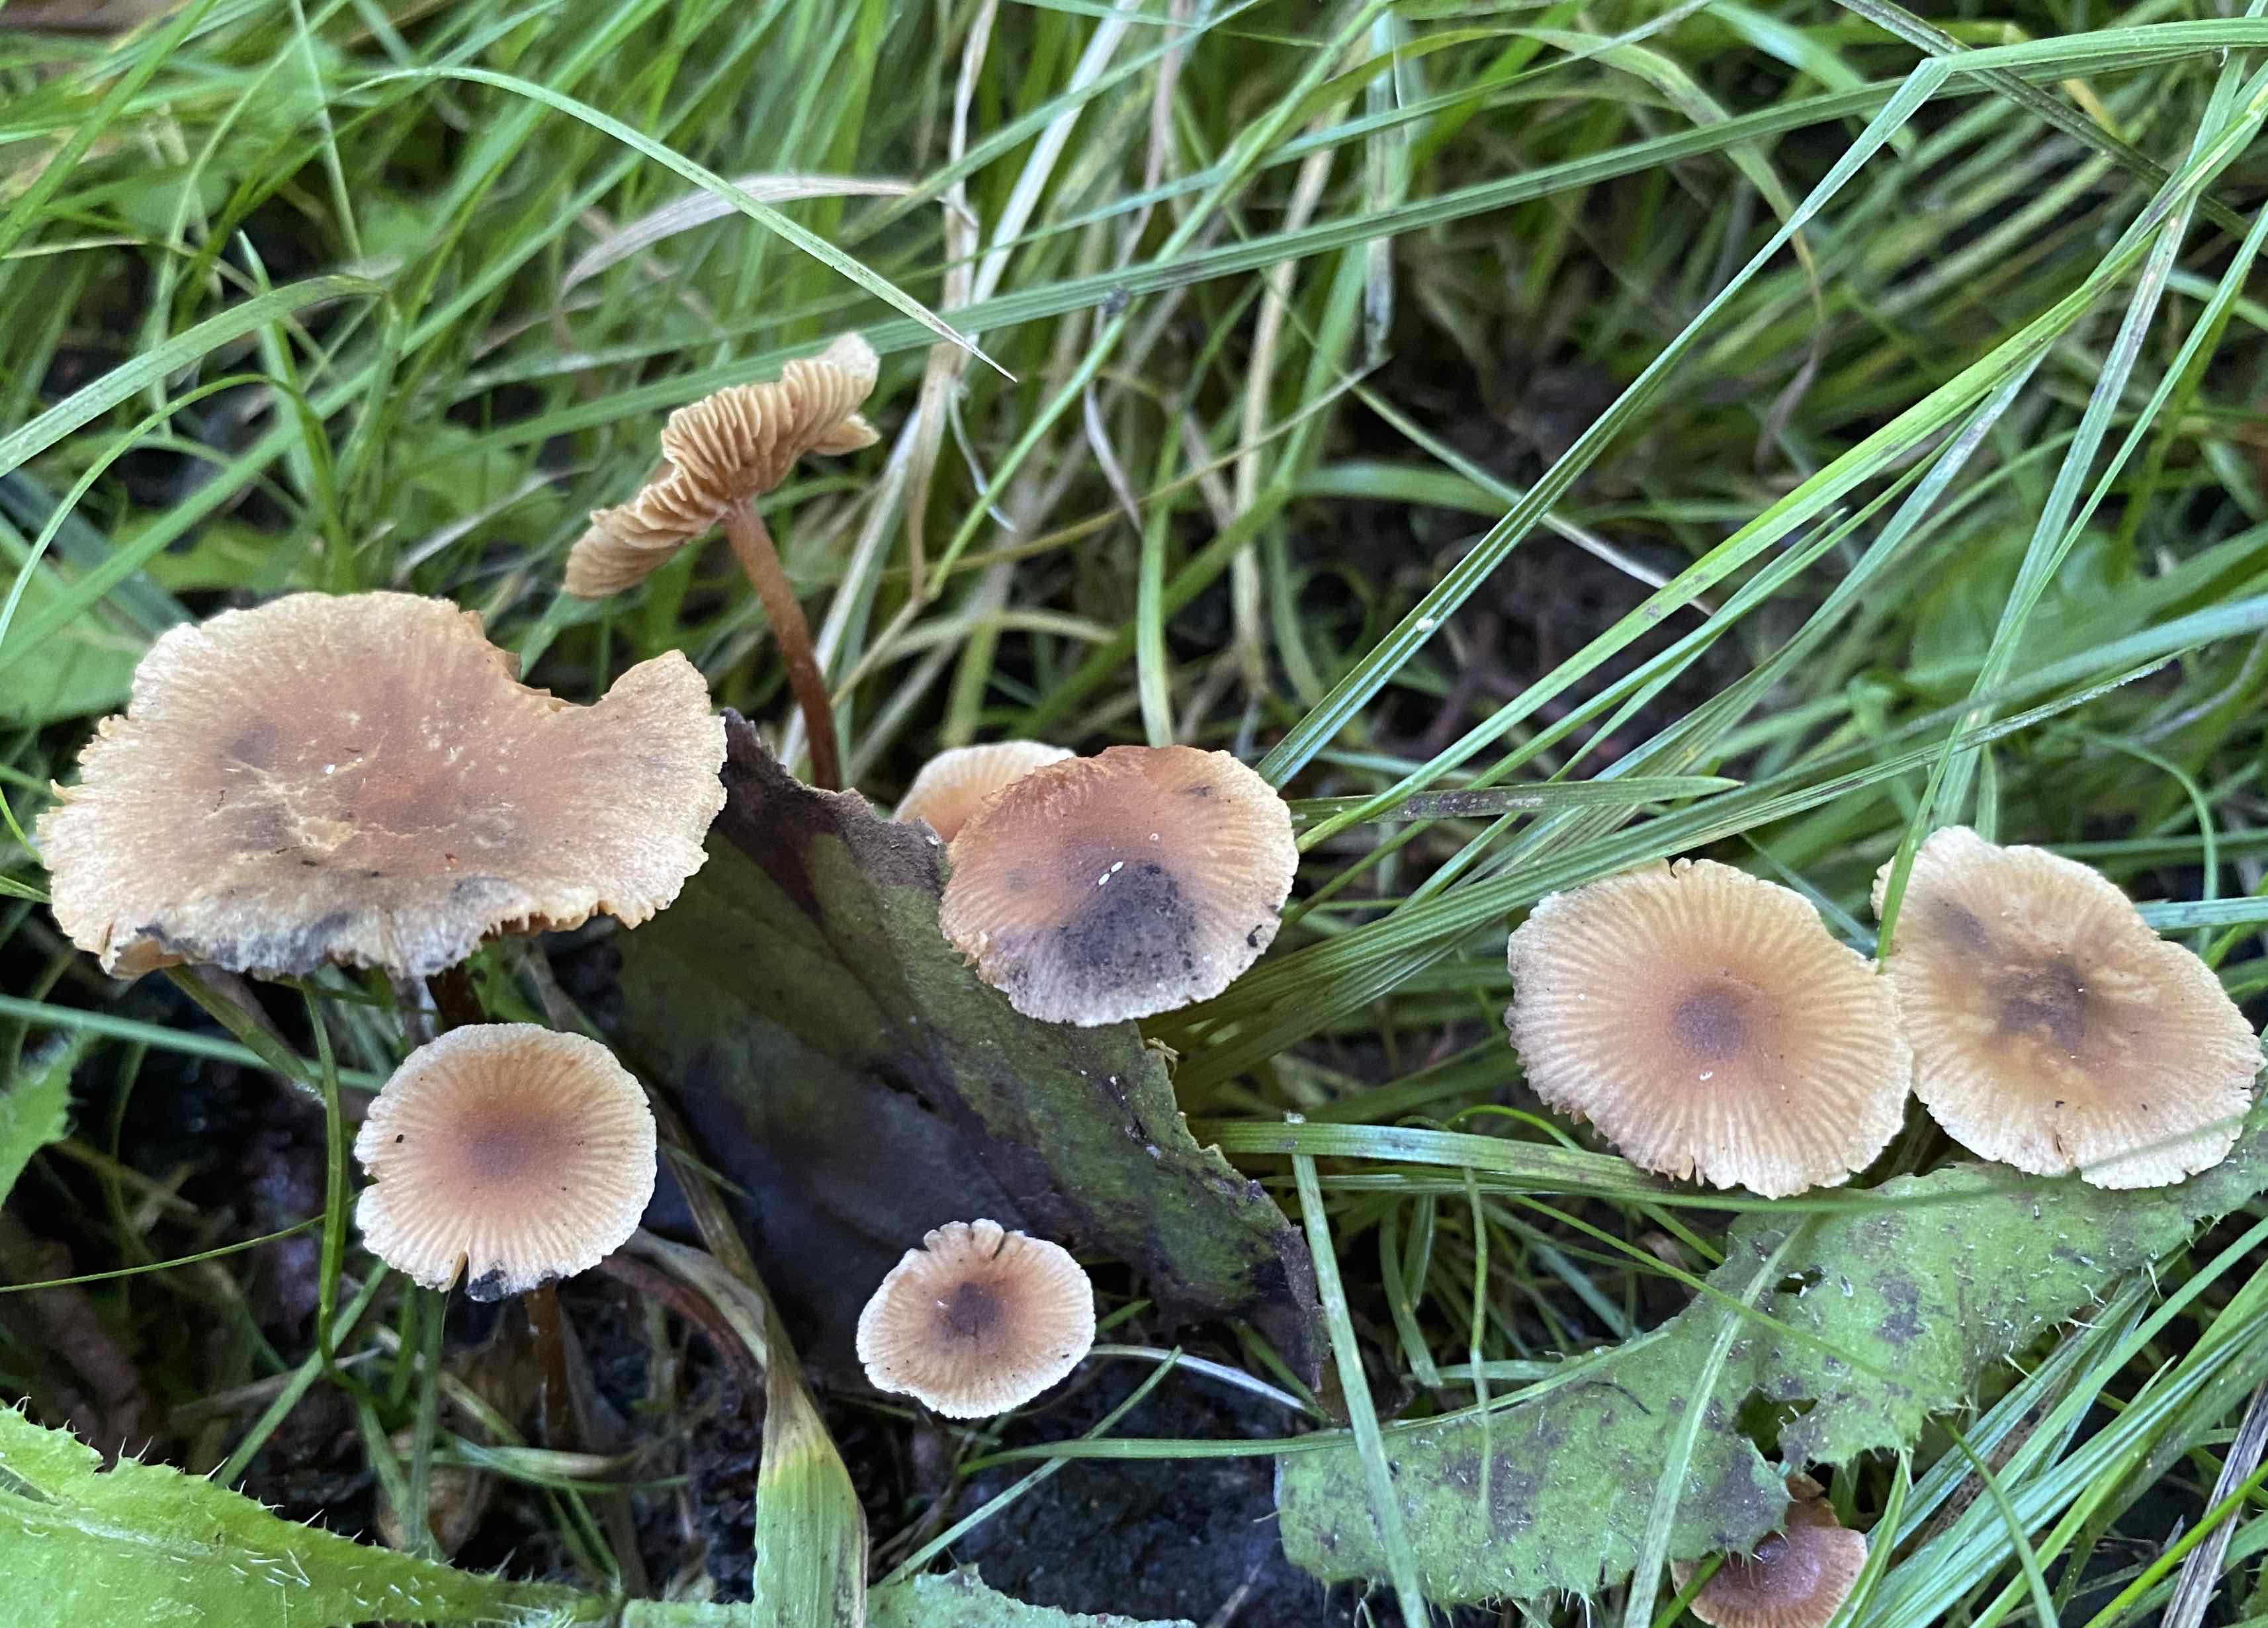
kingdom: Fungi
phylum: Basidiomycota
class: Agaricomycetes
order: Agaricales
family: Hymenogastraceae
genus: Naucoria
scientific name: Naucoria scolecina
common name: mørk elle-knaphat
